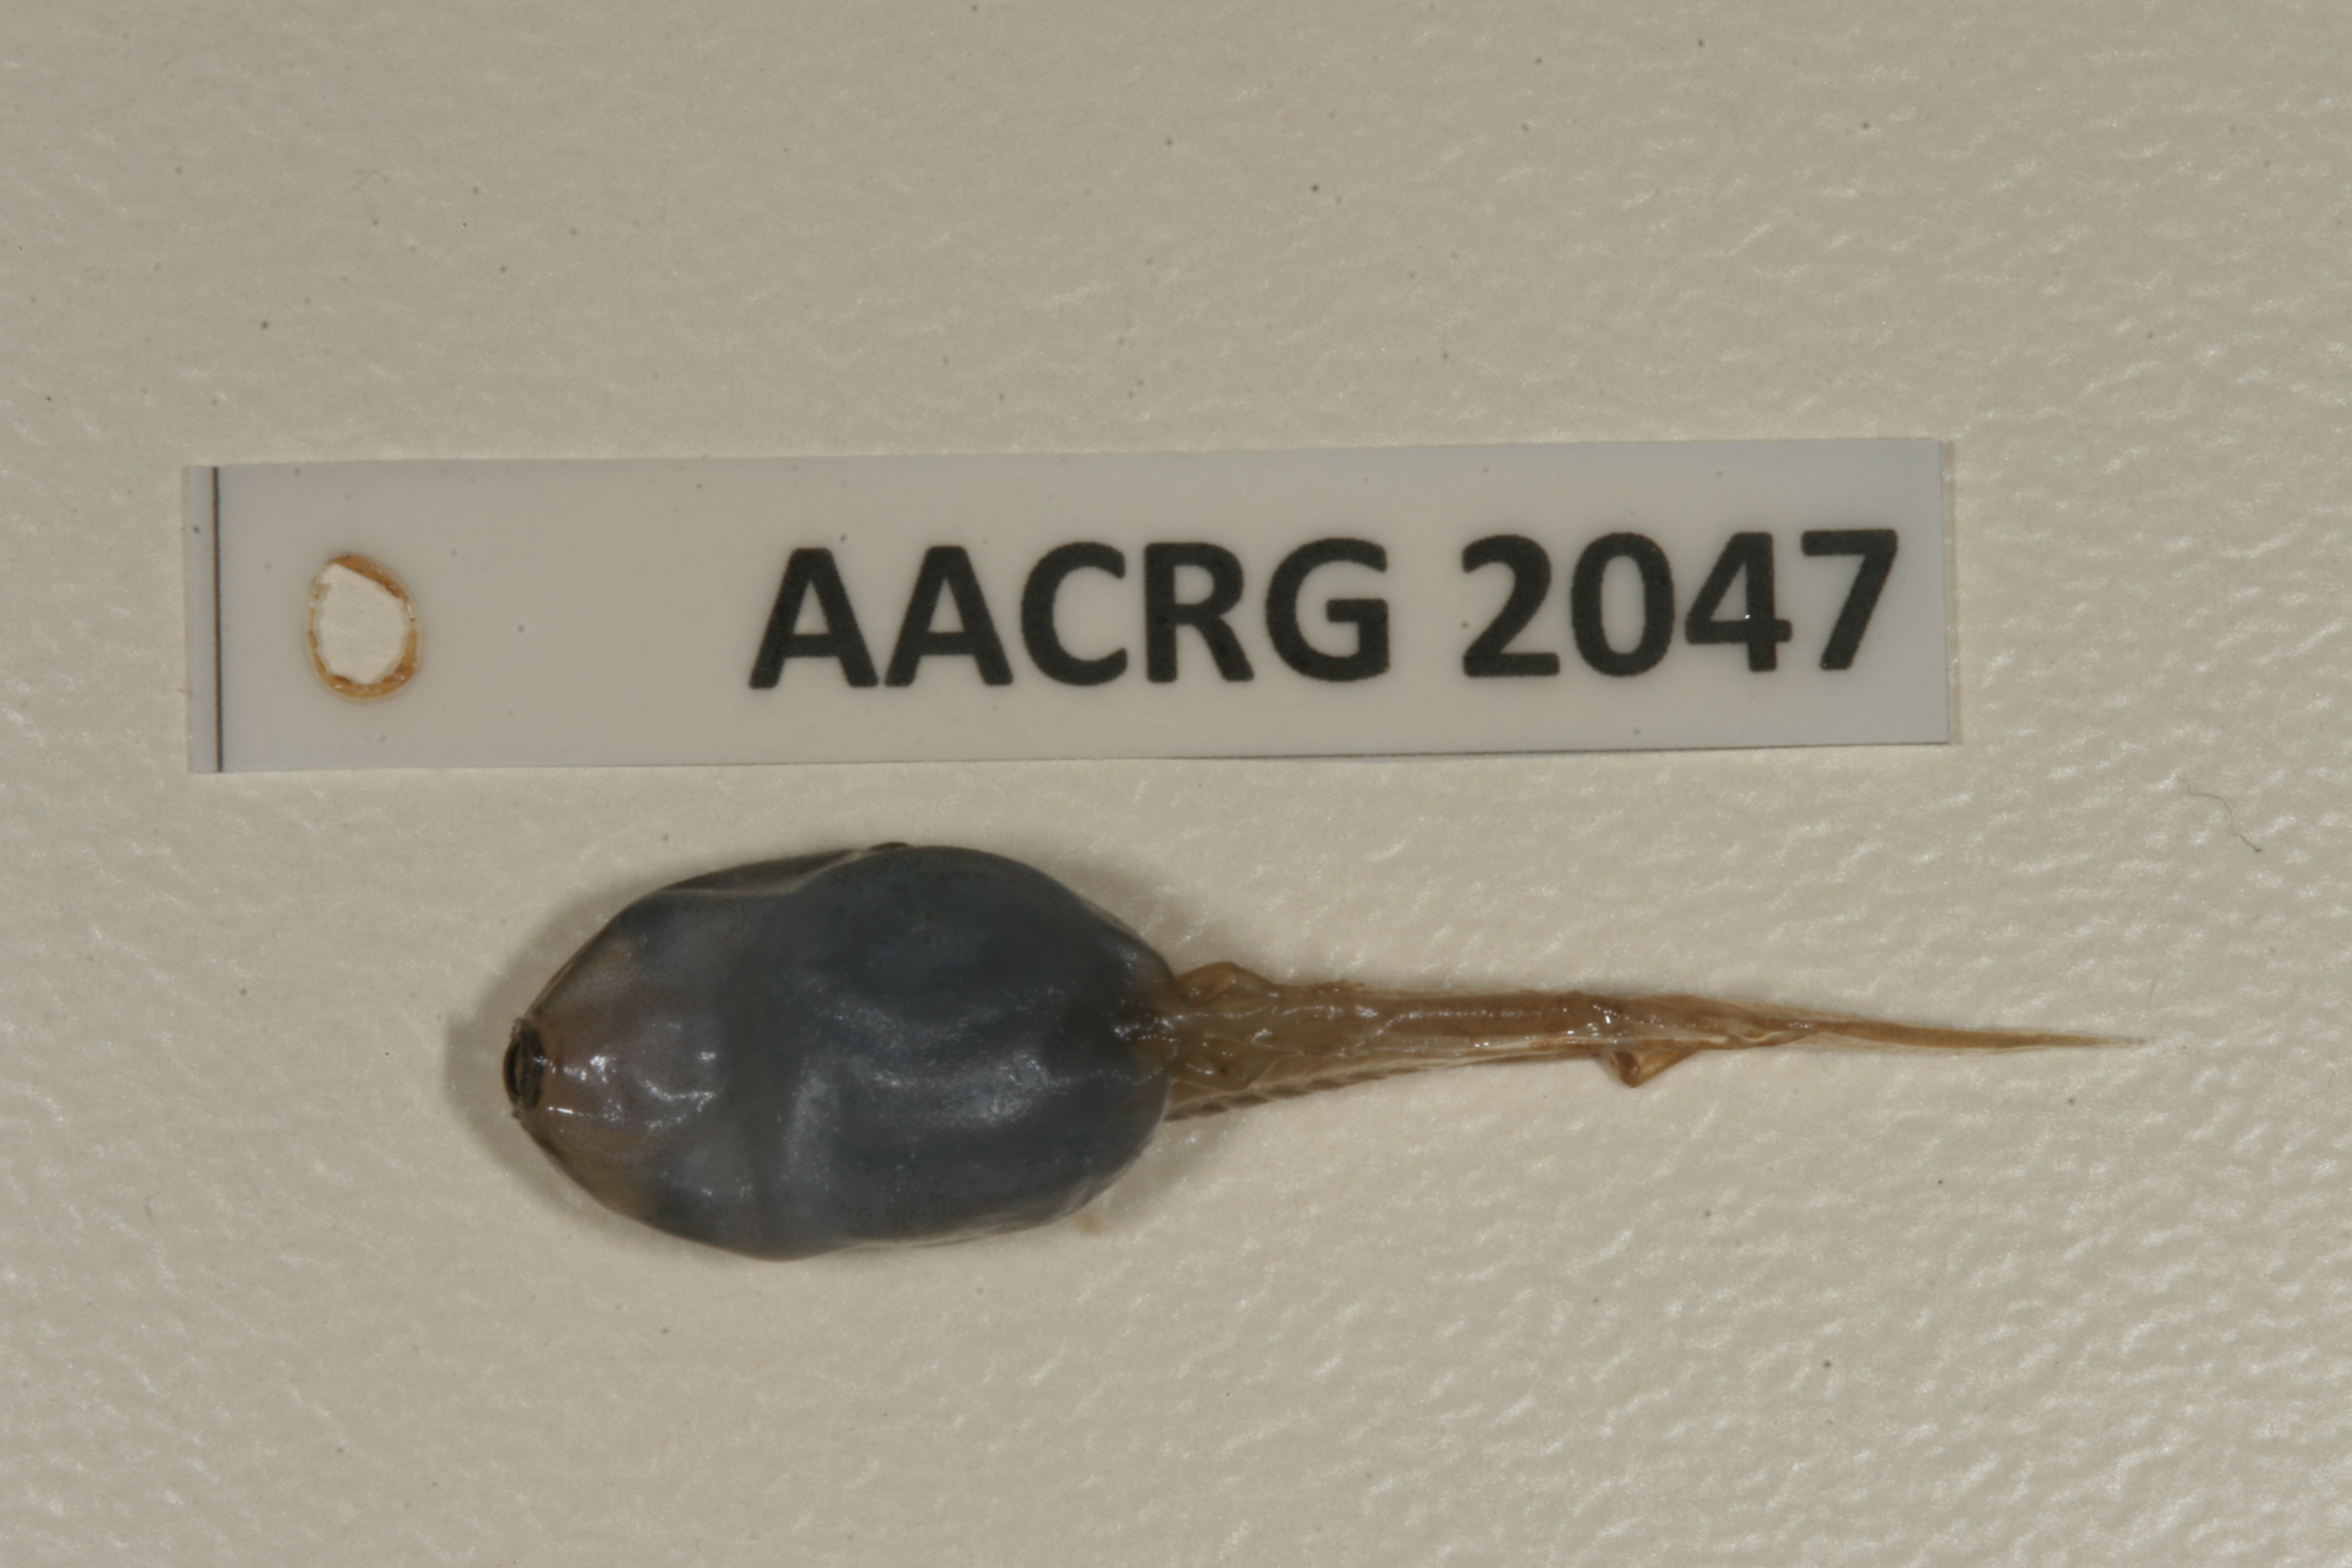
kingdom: Animalia
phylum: Chordata
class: Amphibia
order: Anura
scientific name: Anura
